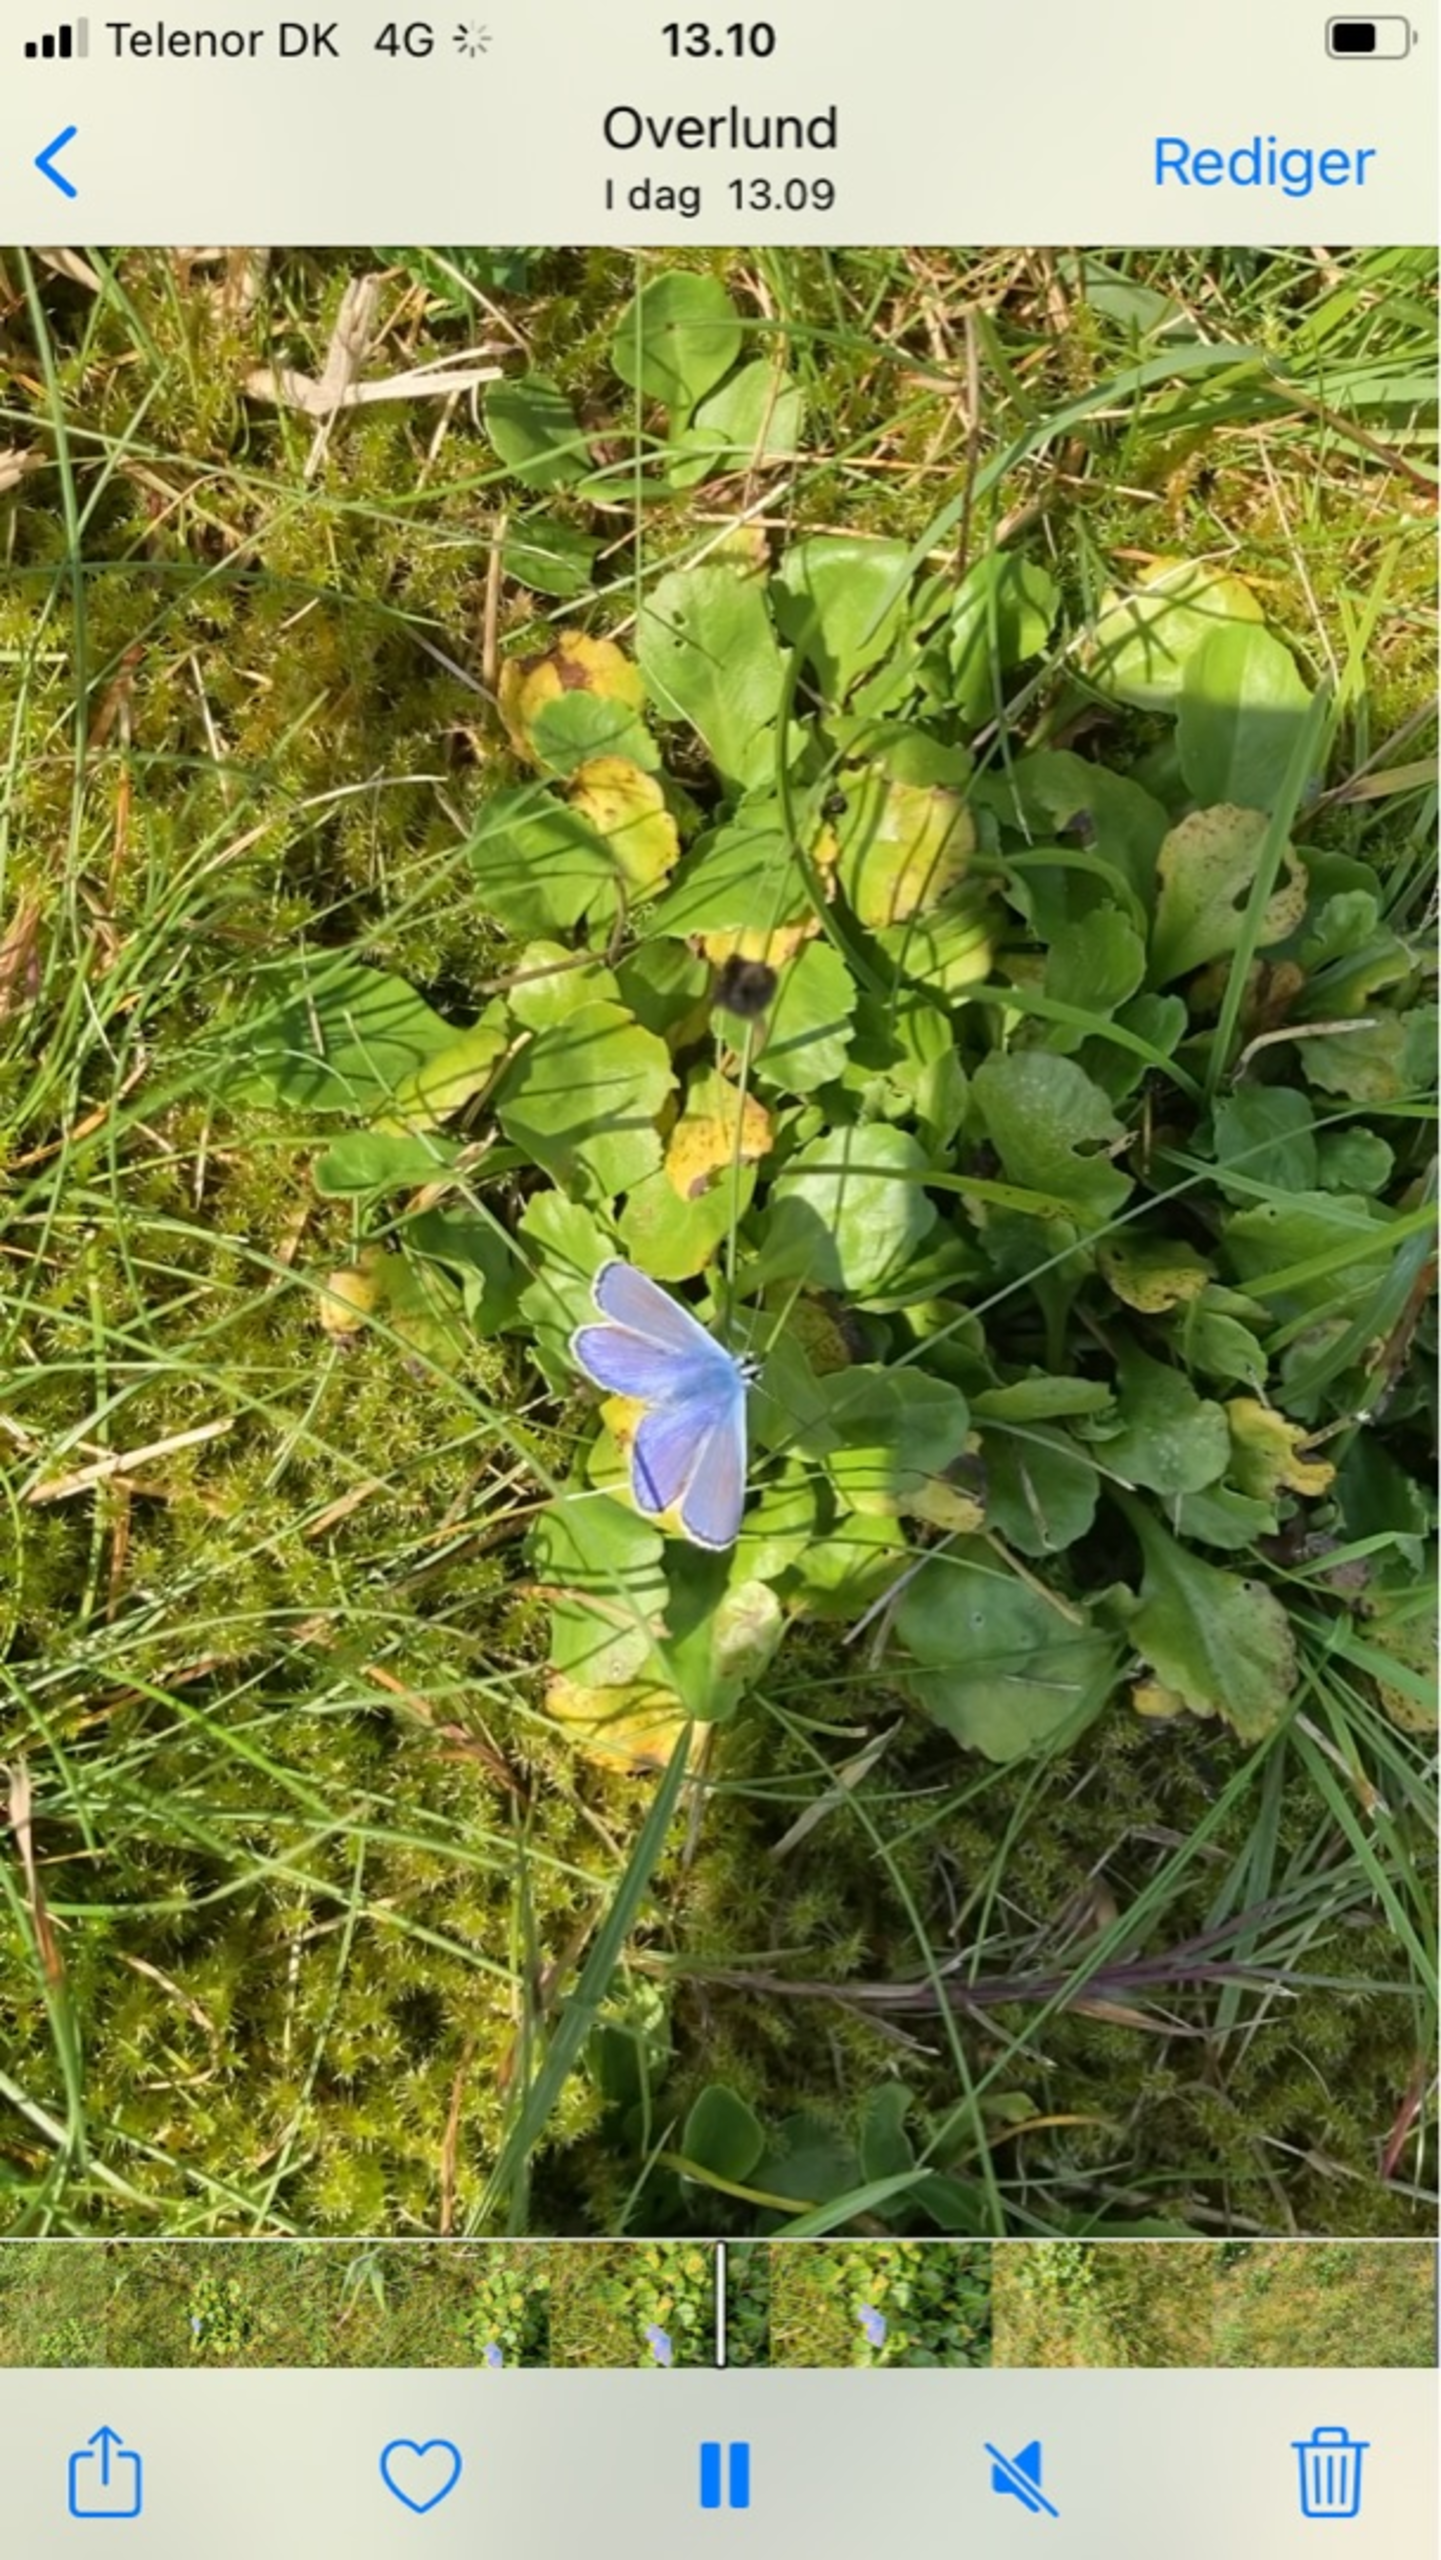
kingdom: Animalia
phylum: Arthropoda
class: Insecta
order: Lepidoptera
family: Lycaenidae
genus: Polyommatus
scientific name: Polyommatus icarus
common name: Almindelig blåfugl
